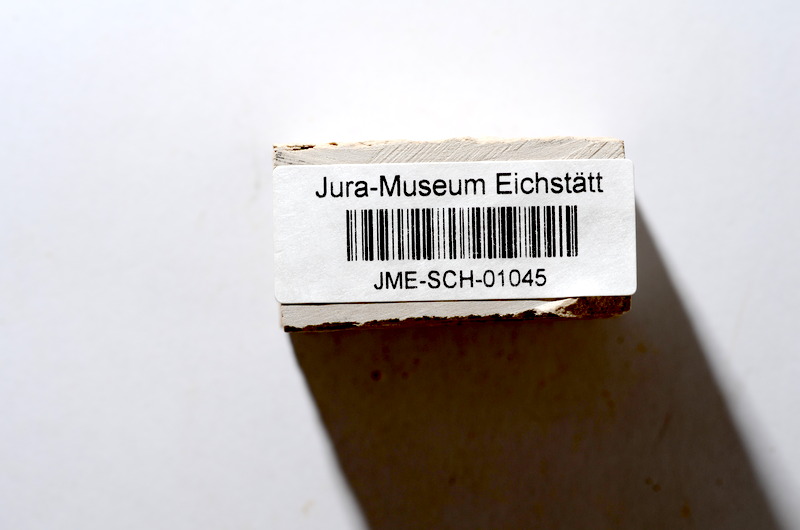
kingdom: Animalia
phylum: Chordata
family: Ascalaboidae
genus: Tharsis
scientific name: Tharsis dubius
